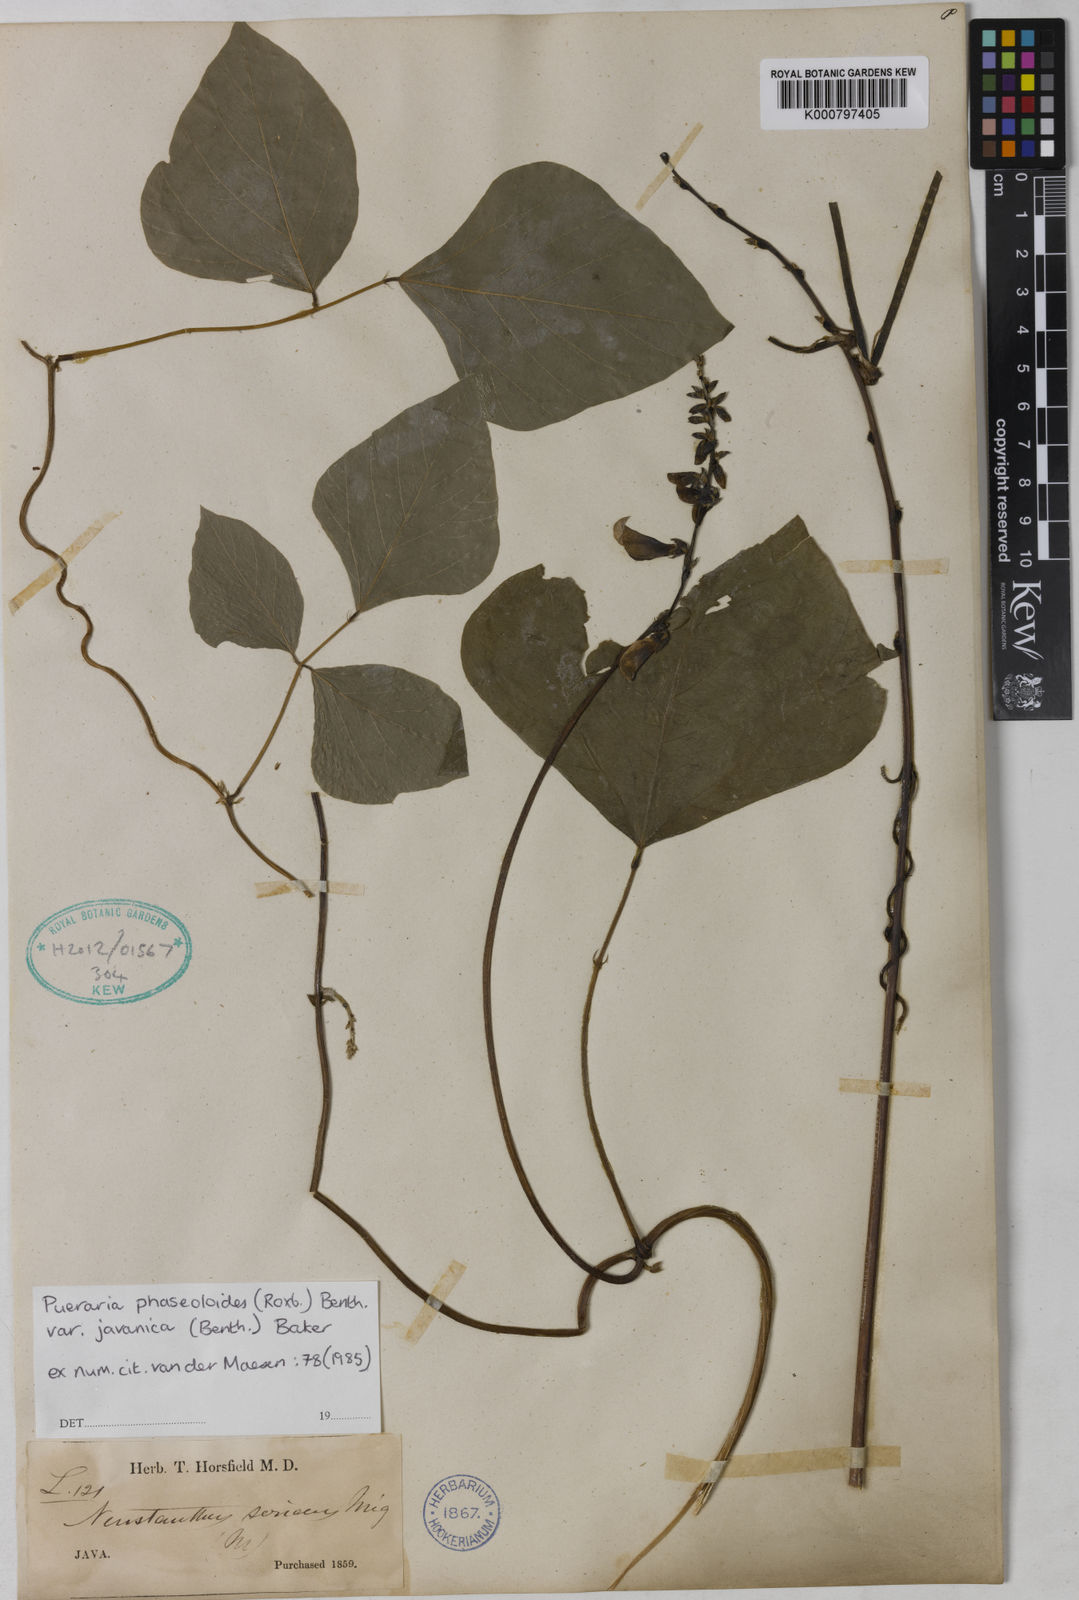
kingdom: Plantae
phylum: Tracheophyta
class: Magnoliopsida
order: Fabales
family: Fabaceae
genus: Neustanthus
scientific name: Neustanthus phaseoloides
